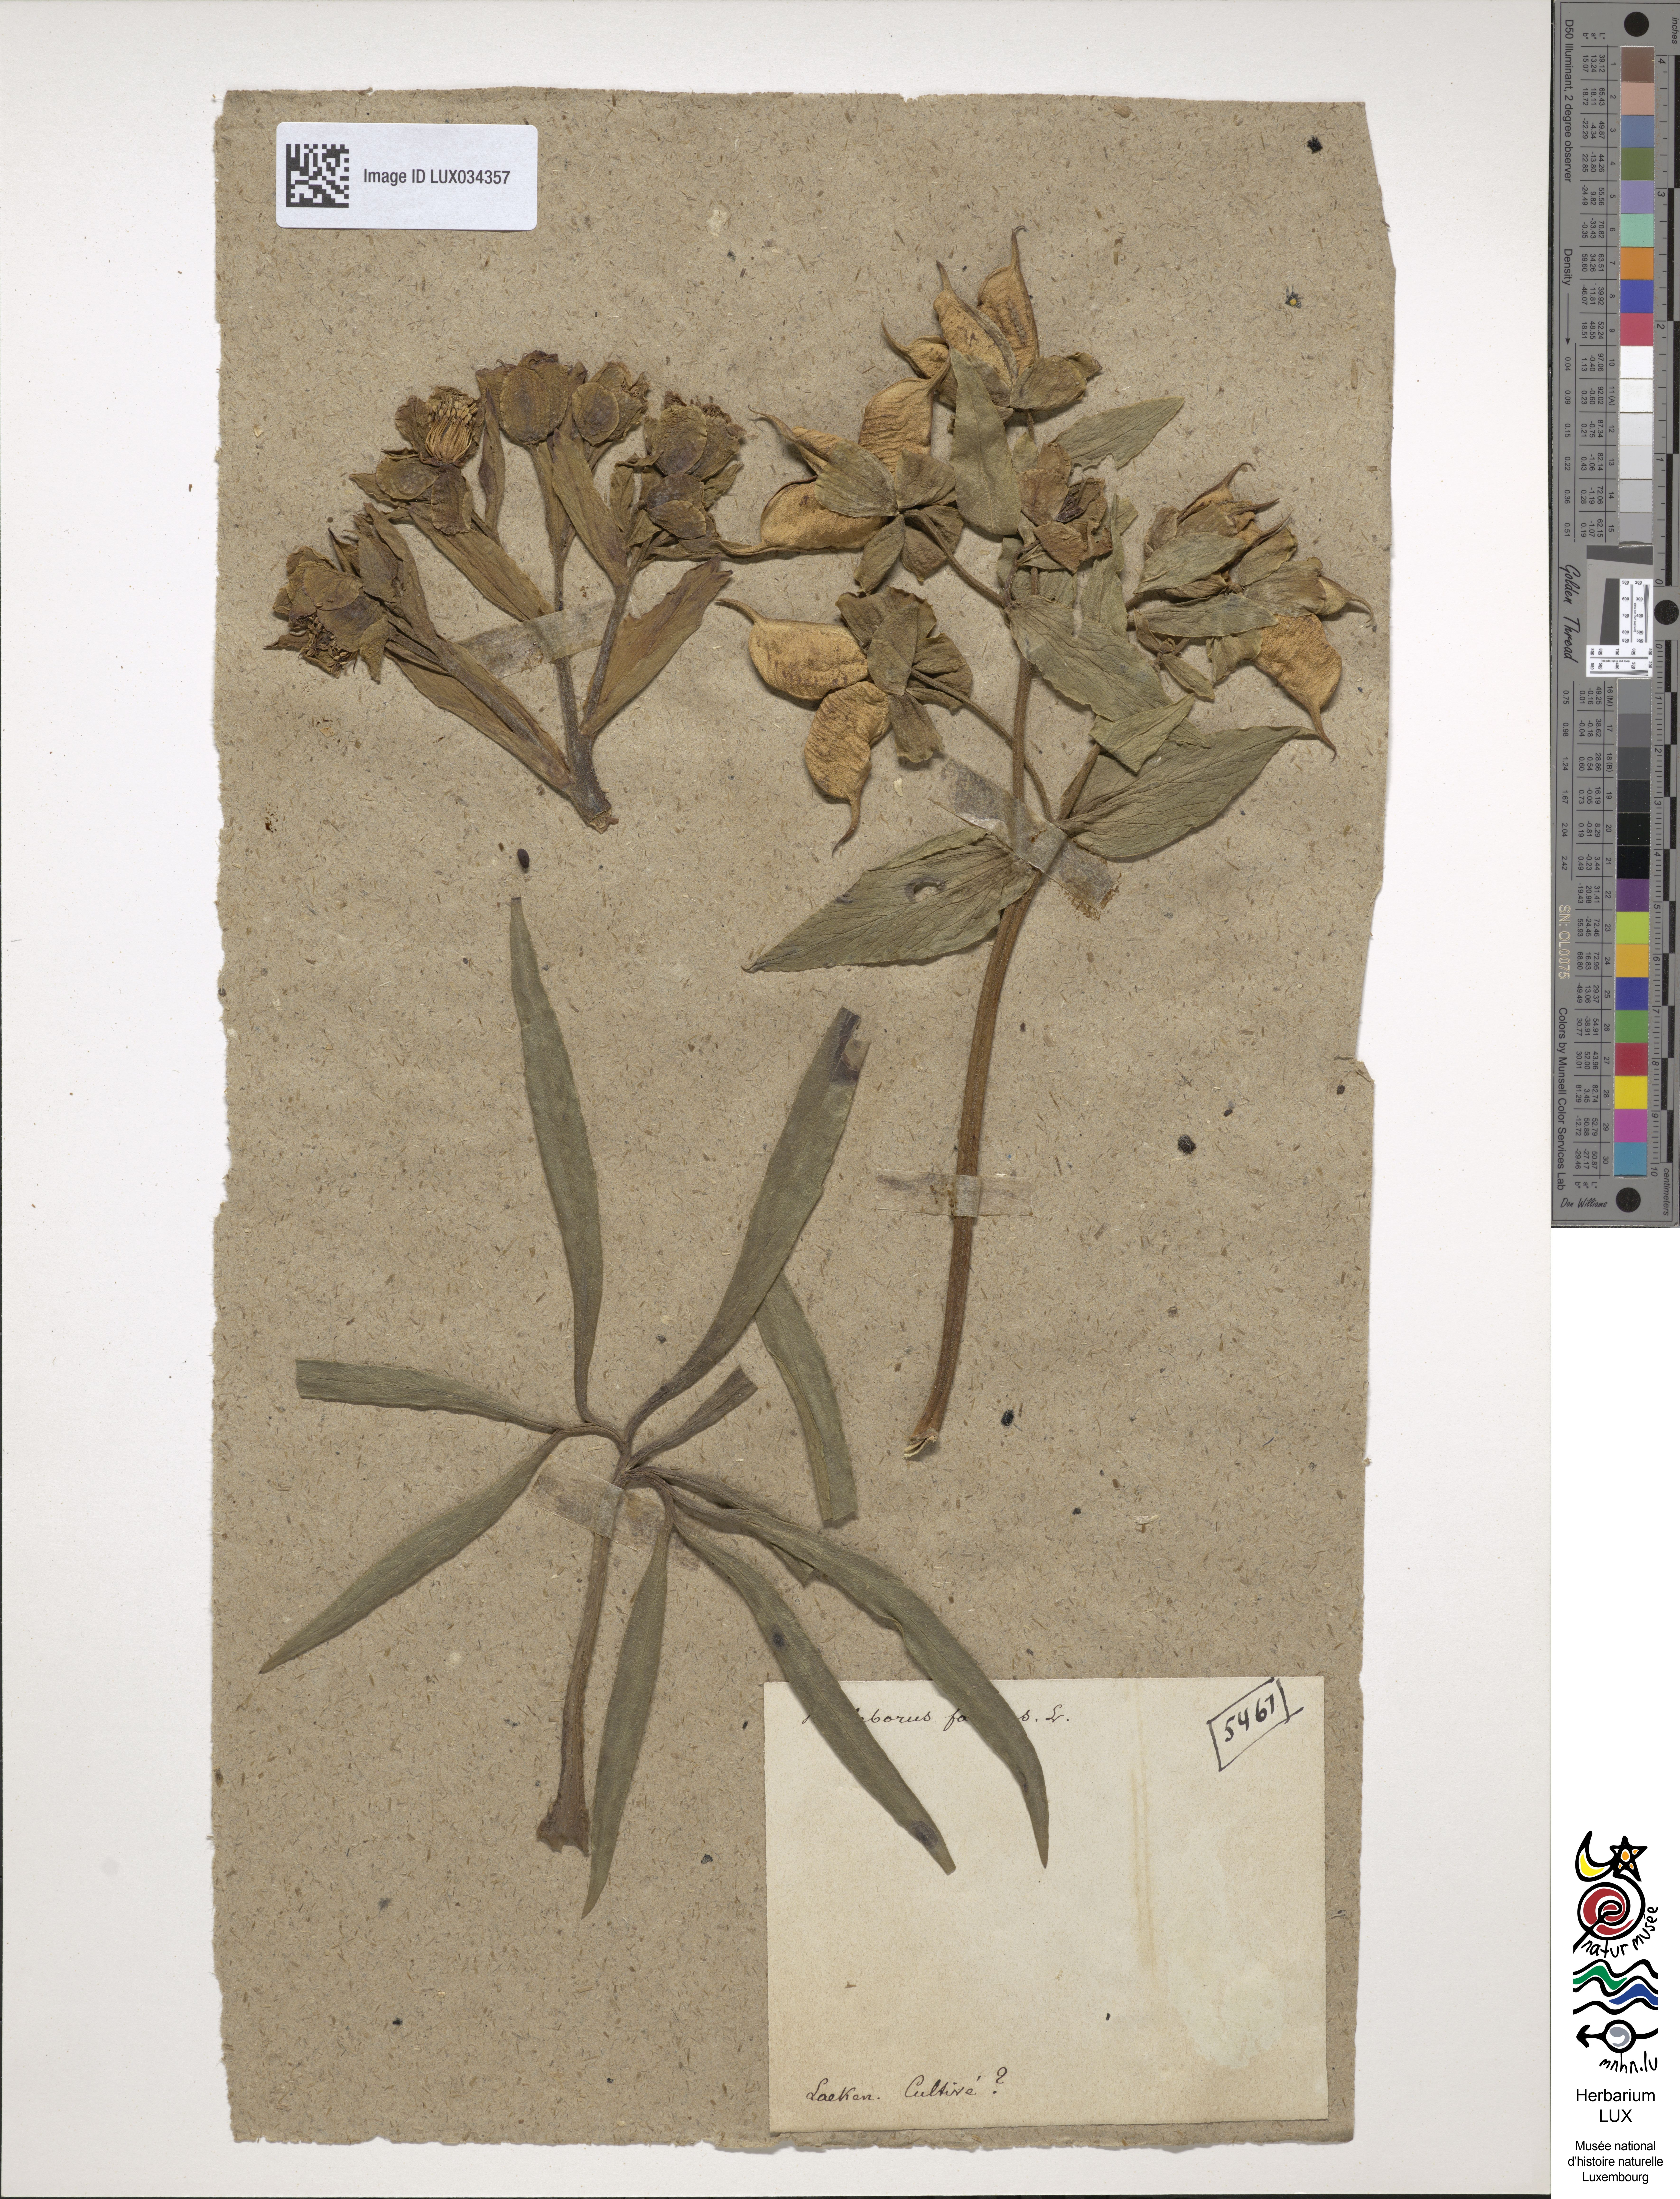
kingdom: Plantae
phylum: Tracheophyta
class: Magnoliopsida
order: Ranunculales
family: Ranunculaceae
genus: Helleborus
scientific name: Helleborus foetidus
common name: Stinking hellebore
